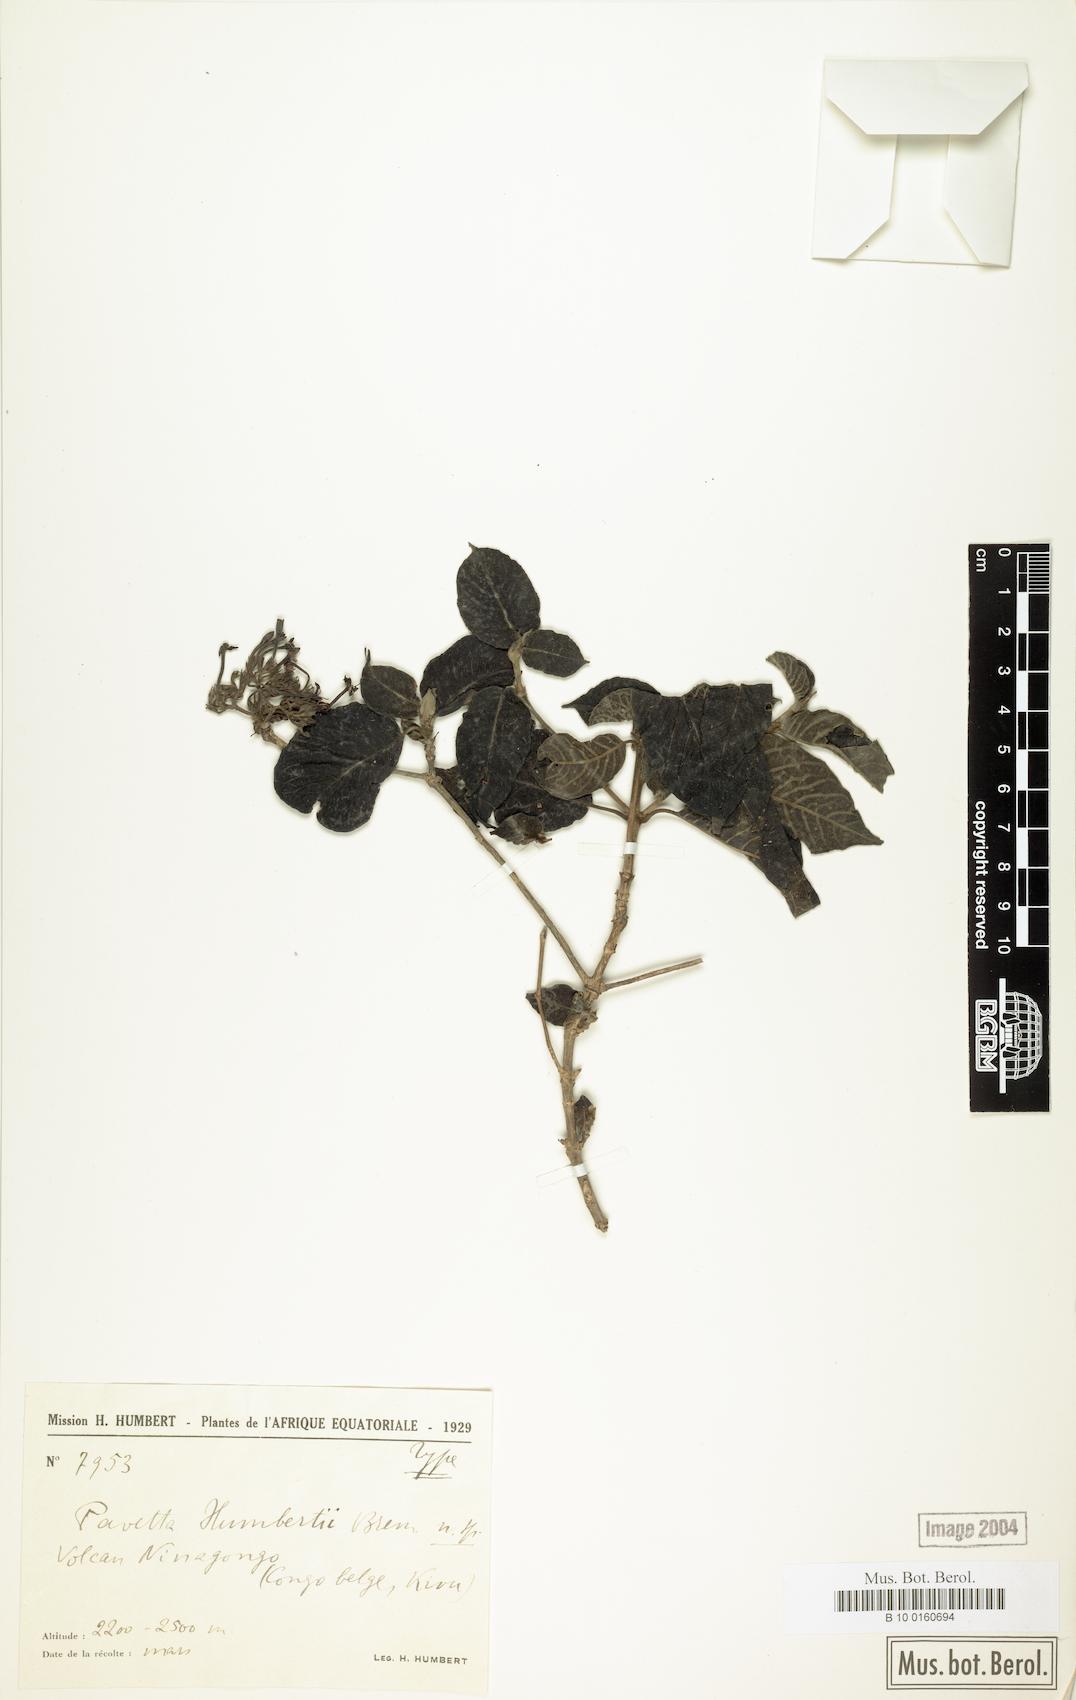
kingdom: Plantae
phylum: Tracheophyta
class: Magnoliopsida
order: Gentianales
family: Rubiaceae
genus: Pavetta
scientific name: Pavetta oliveriana
